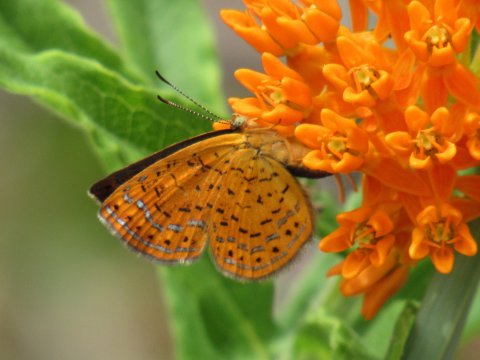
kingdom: Animalia
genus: Calephelis
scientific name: Calephelis borealis
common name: Northern Metalmark
